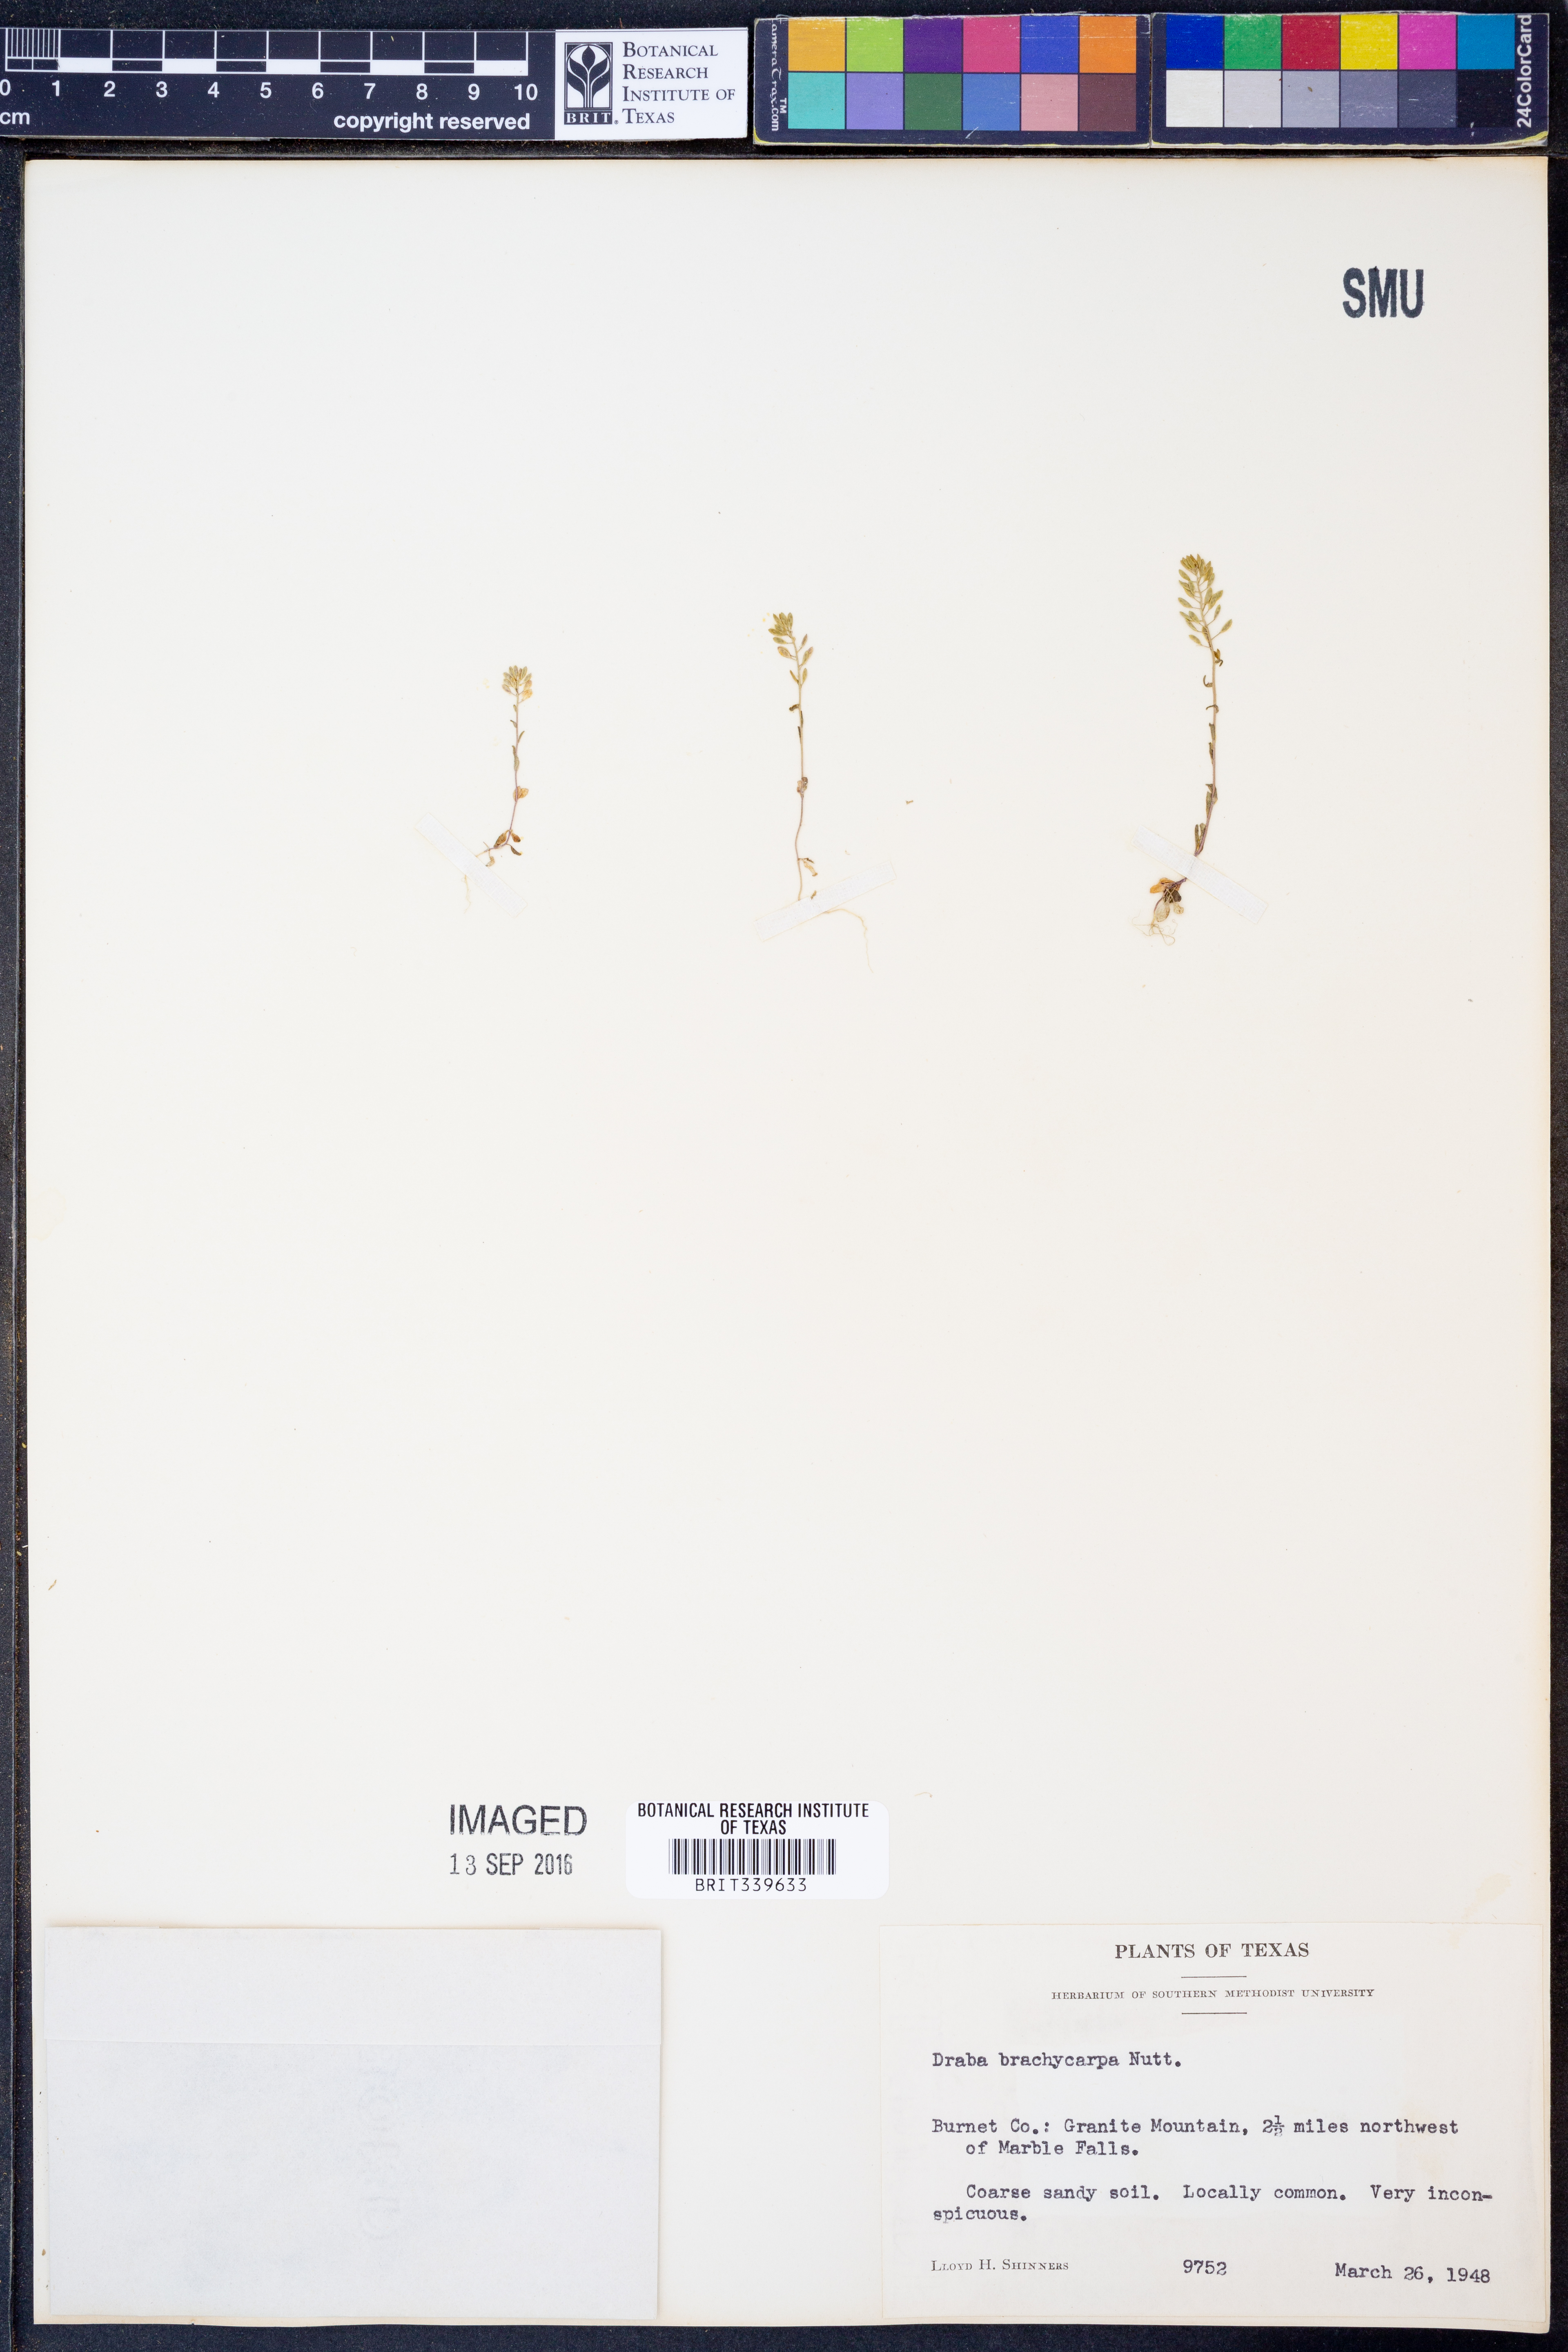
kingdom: Plantae
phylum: Tracheophyta
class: Magnoliopsida
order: Brassicales
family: Brassicaceae
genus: Abdra
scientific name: Abdra brachycarpa
